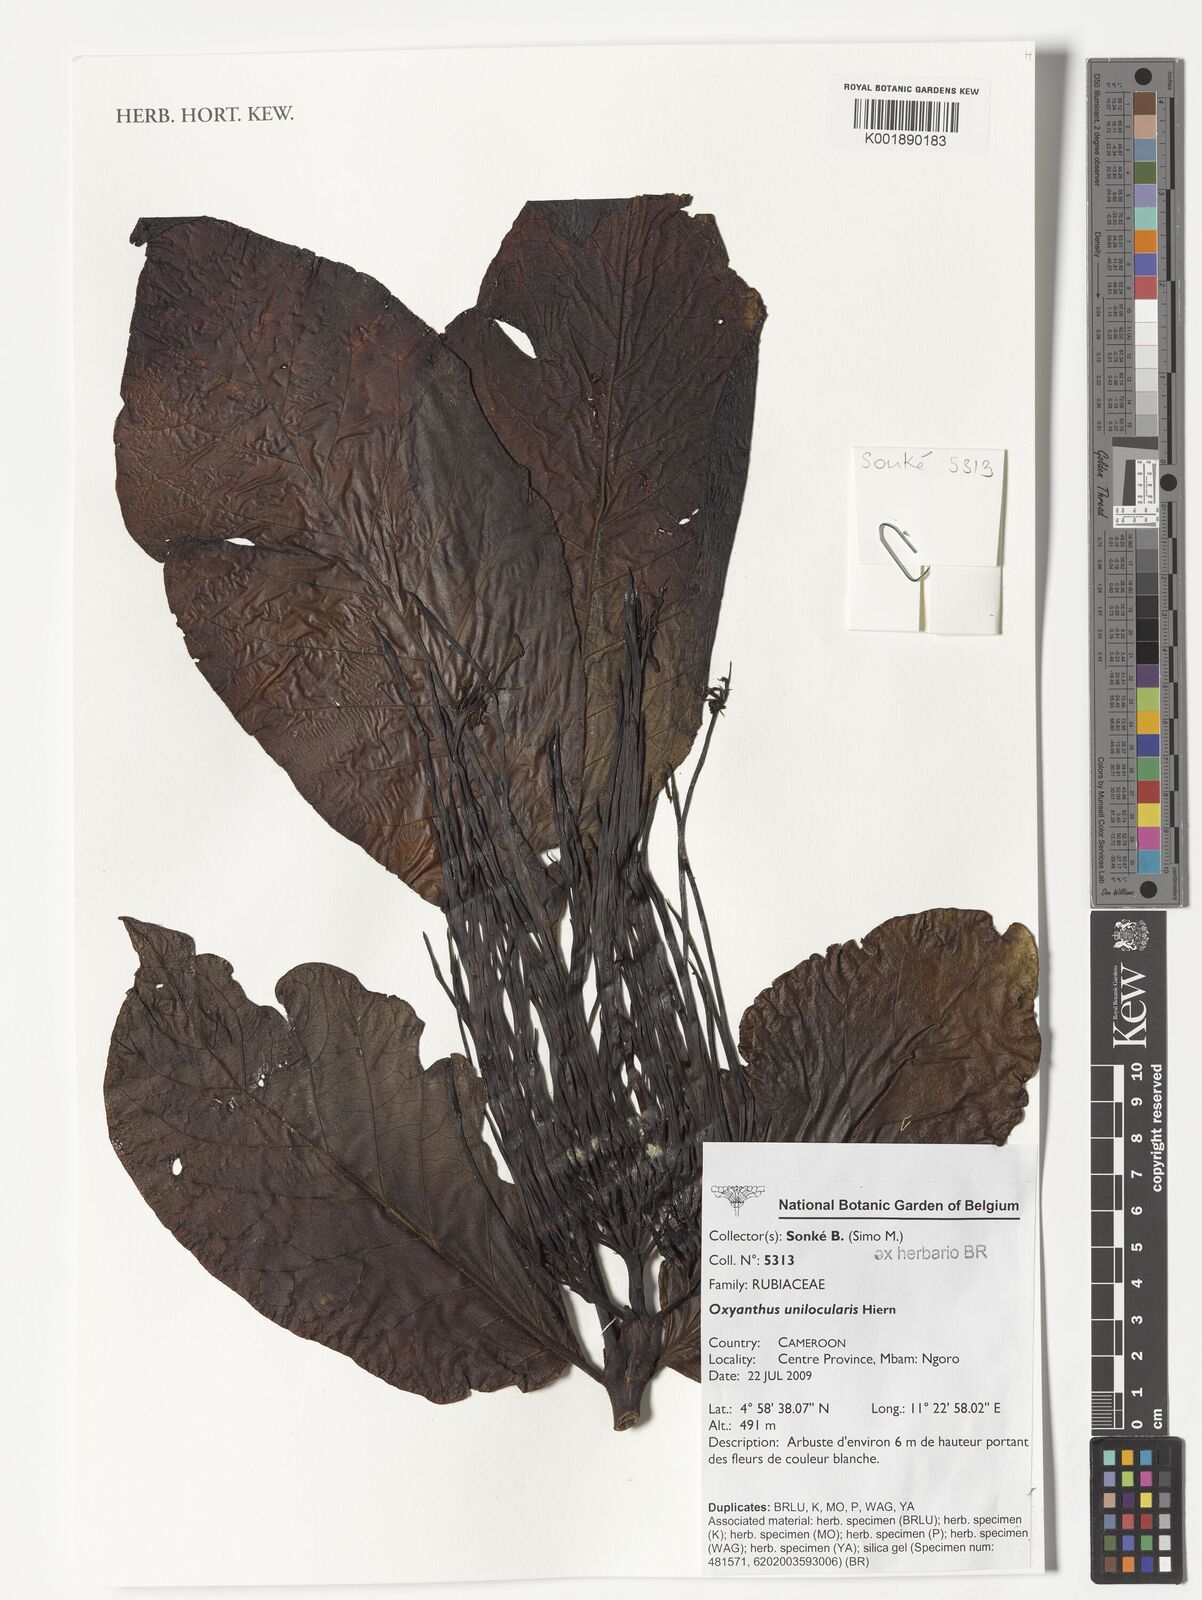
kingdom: Plantae
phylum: Tracheophyta
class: Magnoliopsida
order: Gentianales
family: Rubiaceae
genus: Oxyanthus
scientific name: Oxyanthus unilocularis
